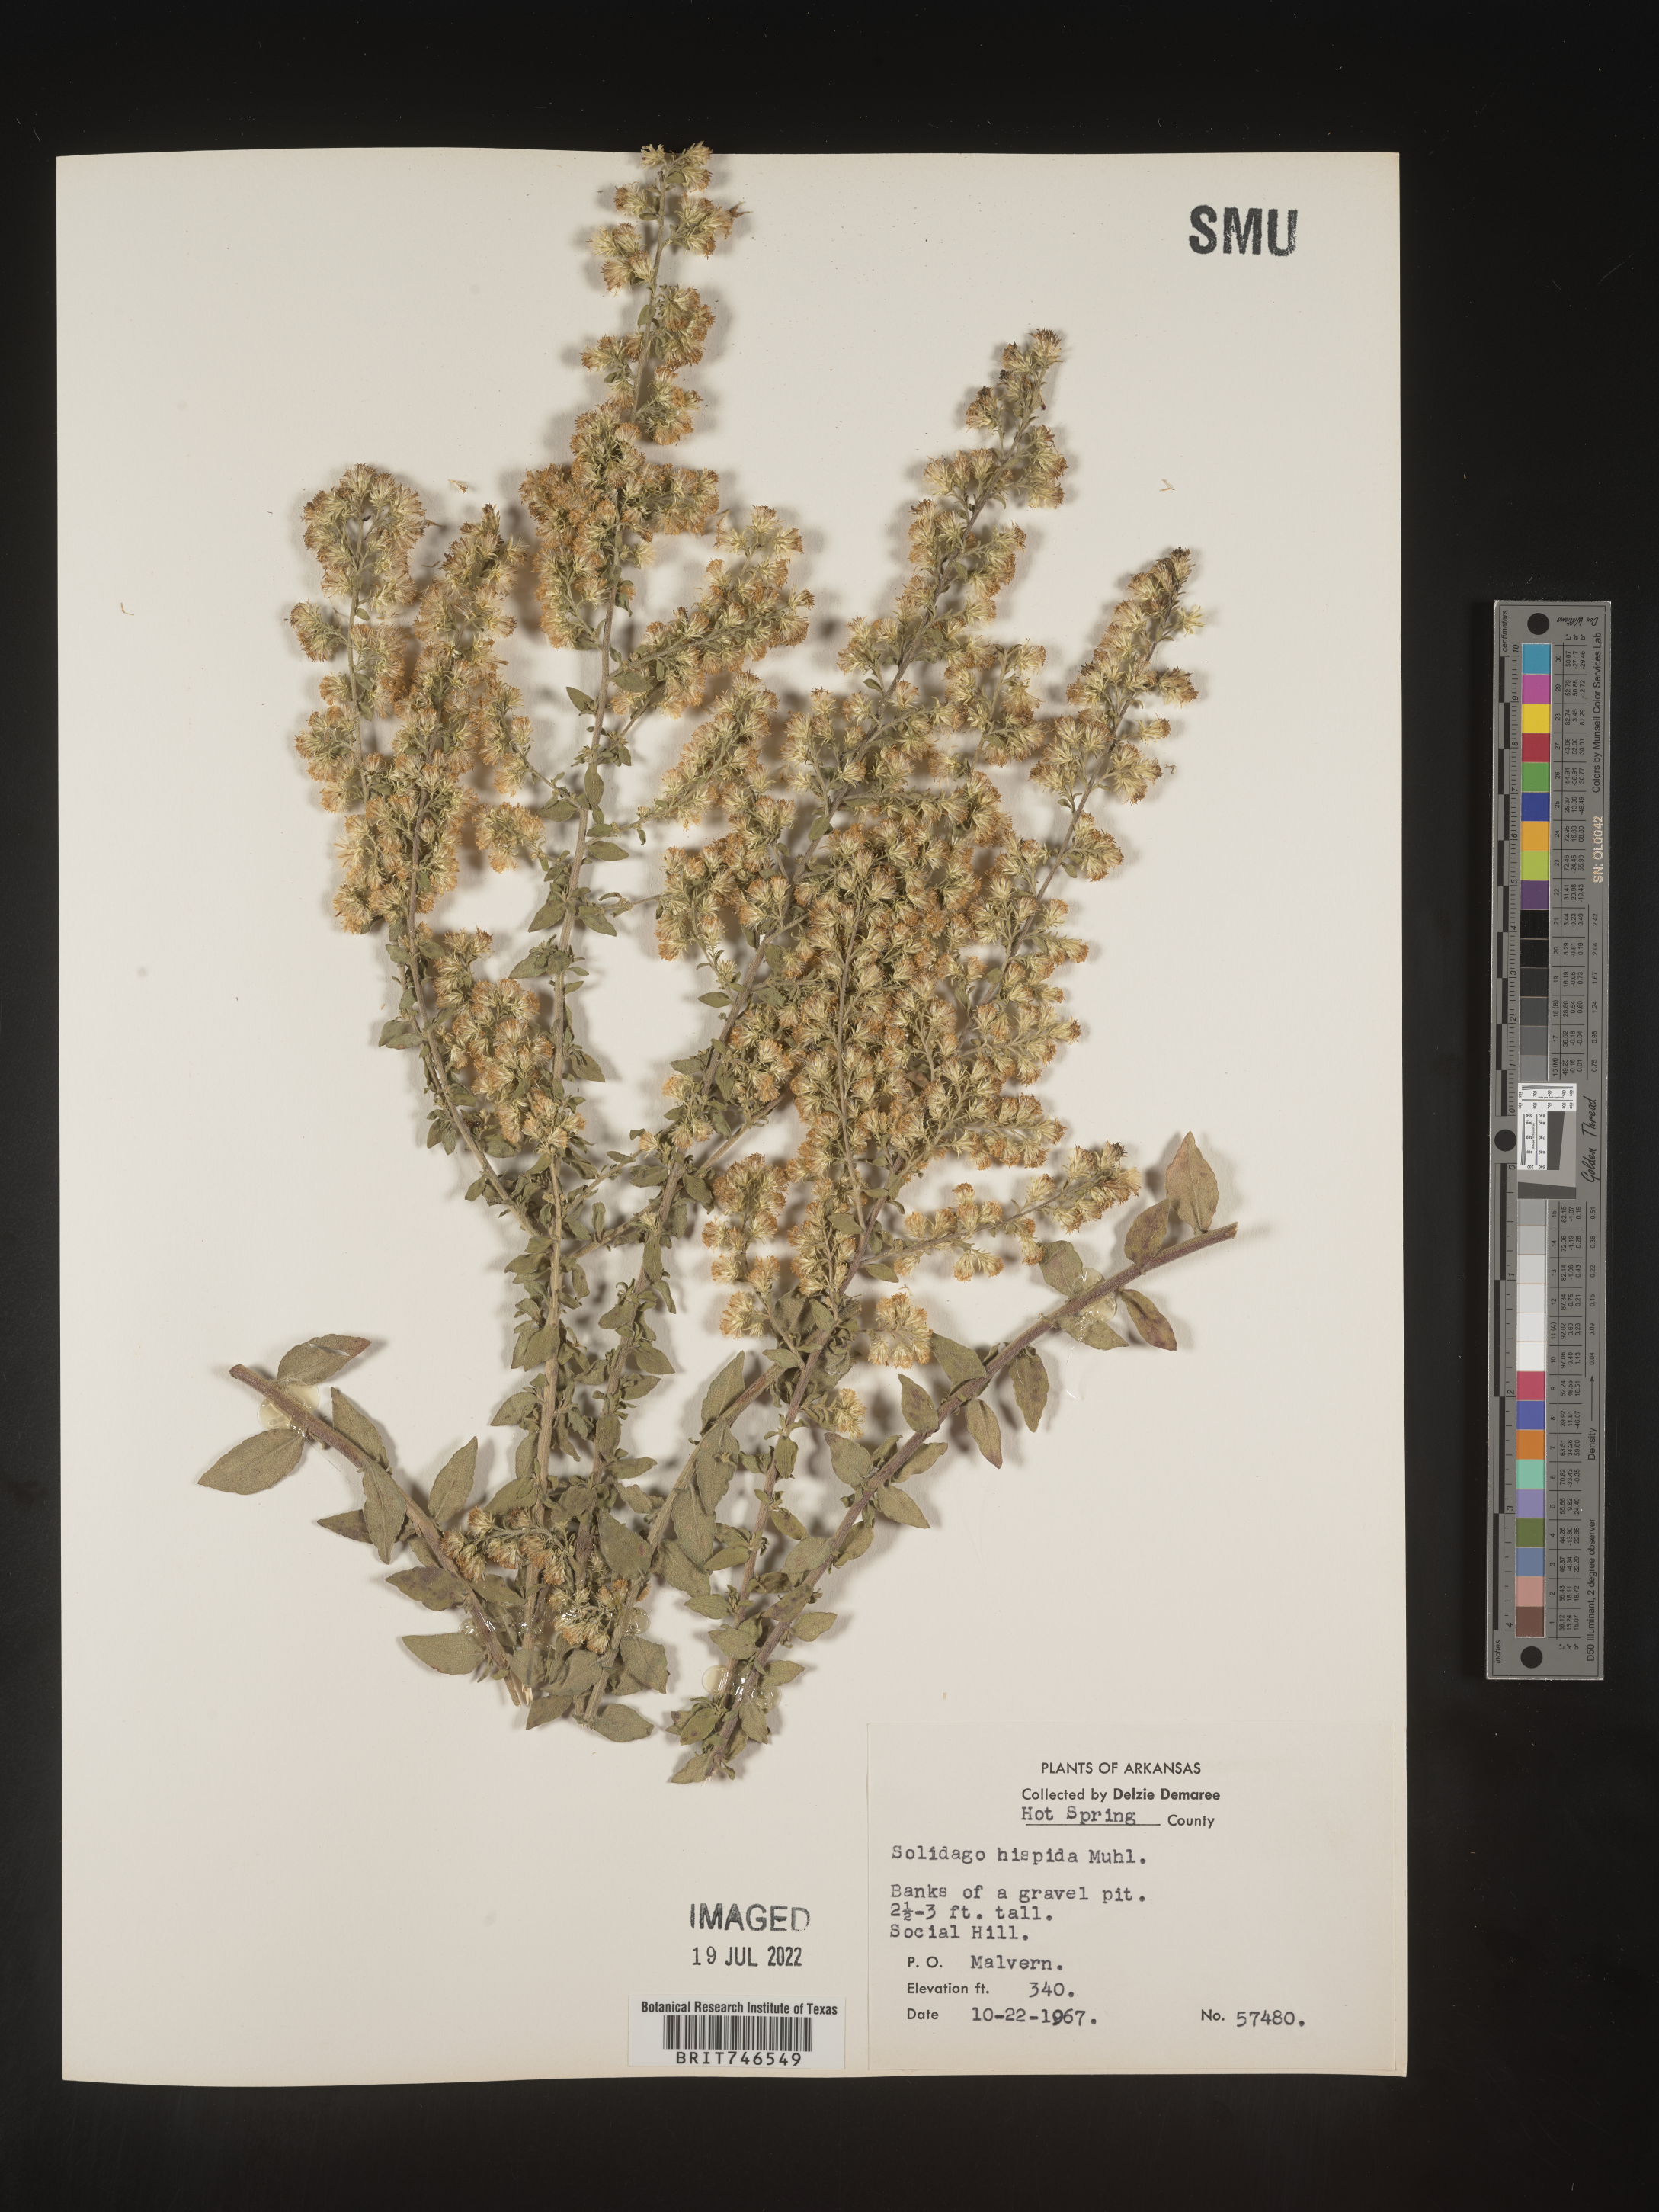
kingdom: Plantae
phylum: Tracheophyta
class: Magnoliopsida
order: Asterales
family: Asteraceae
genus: Solidago
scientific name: Solidago hispida
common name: Hairy goldenrod
